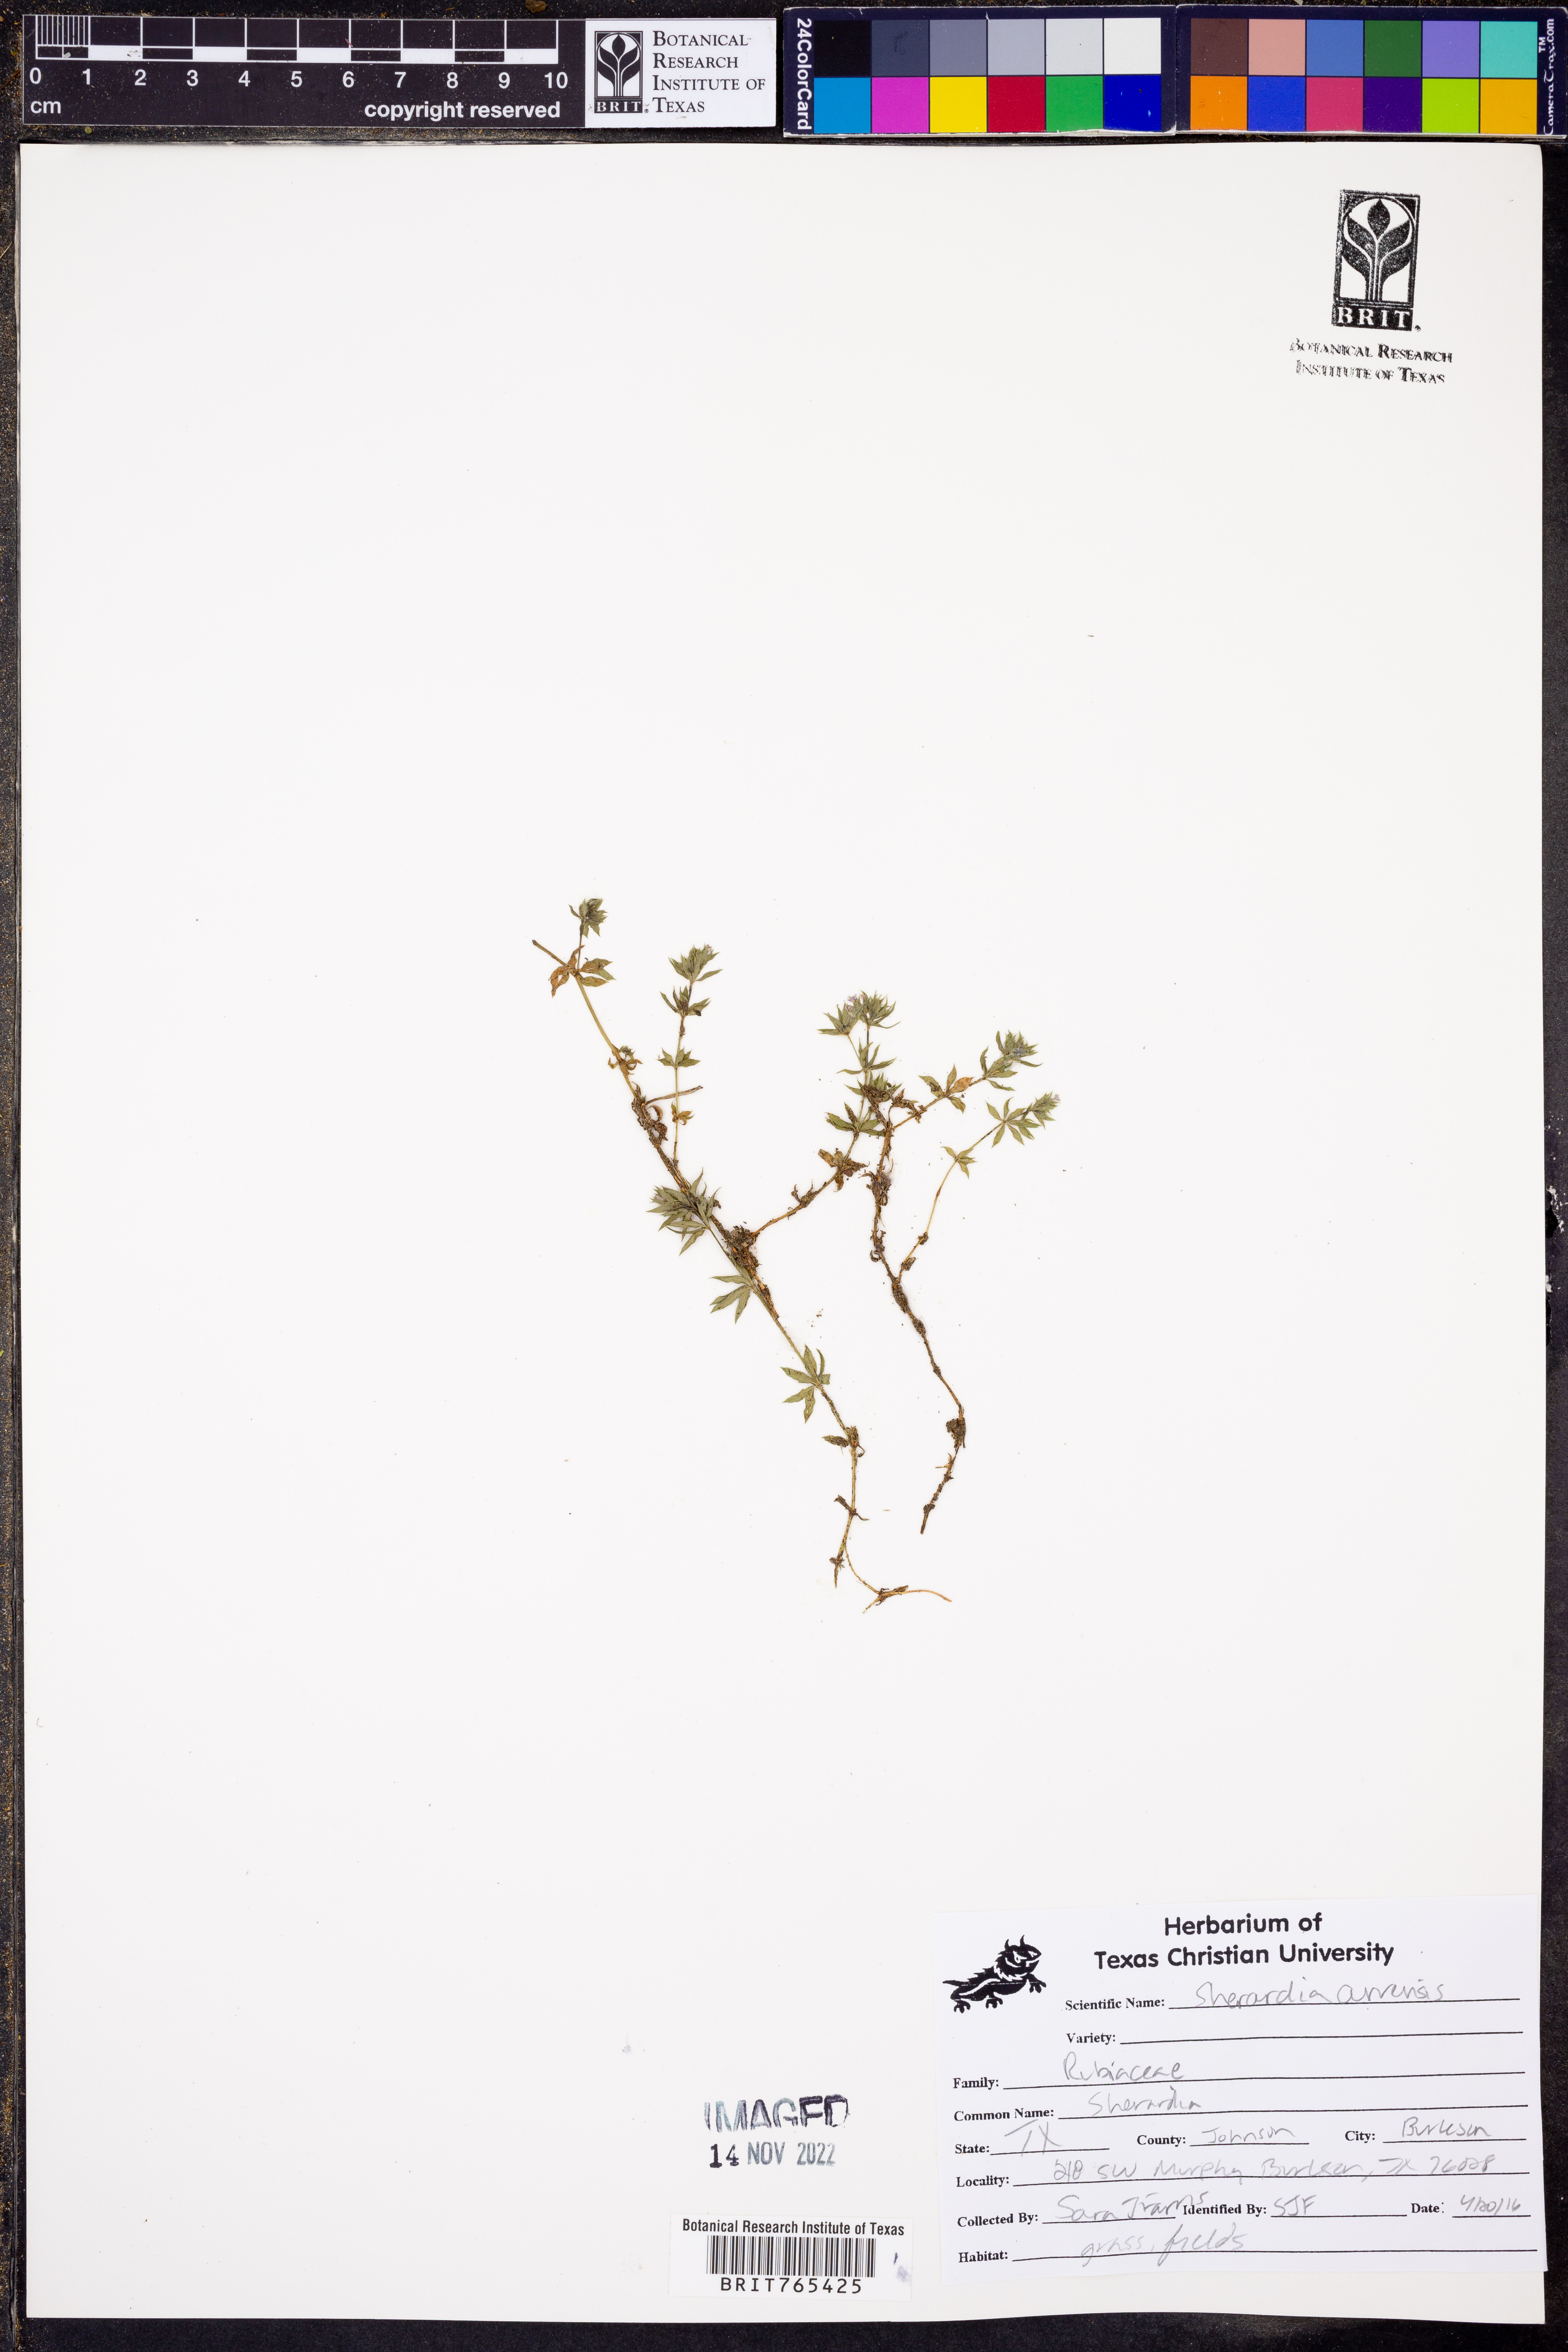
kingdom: Plantae
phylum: Tracheophyta
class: Magnoliopsida
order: Gentianales
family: Rubiaceae
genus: Sherardia
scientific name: Sherardia arvensis
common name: Field madder
